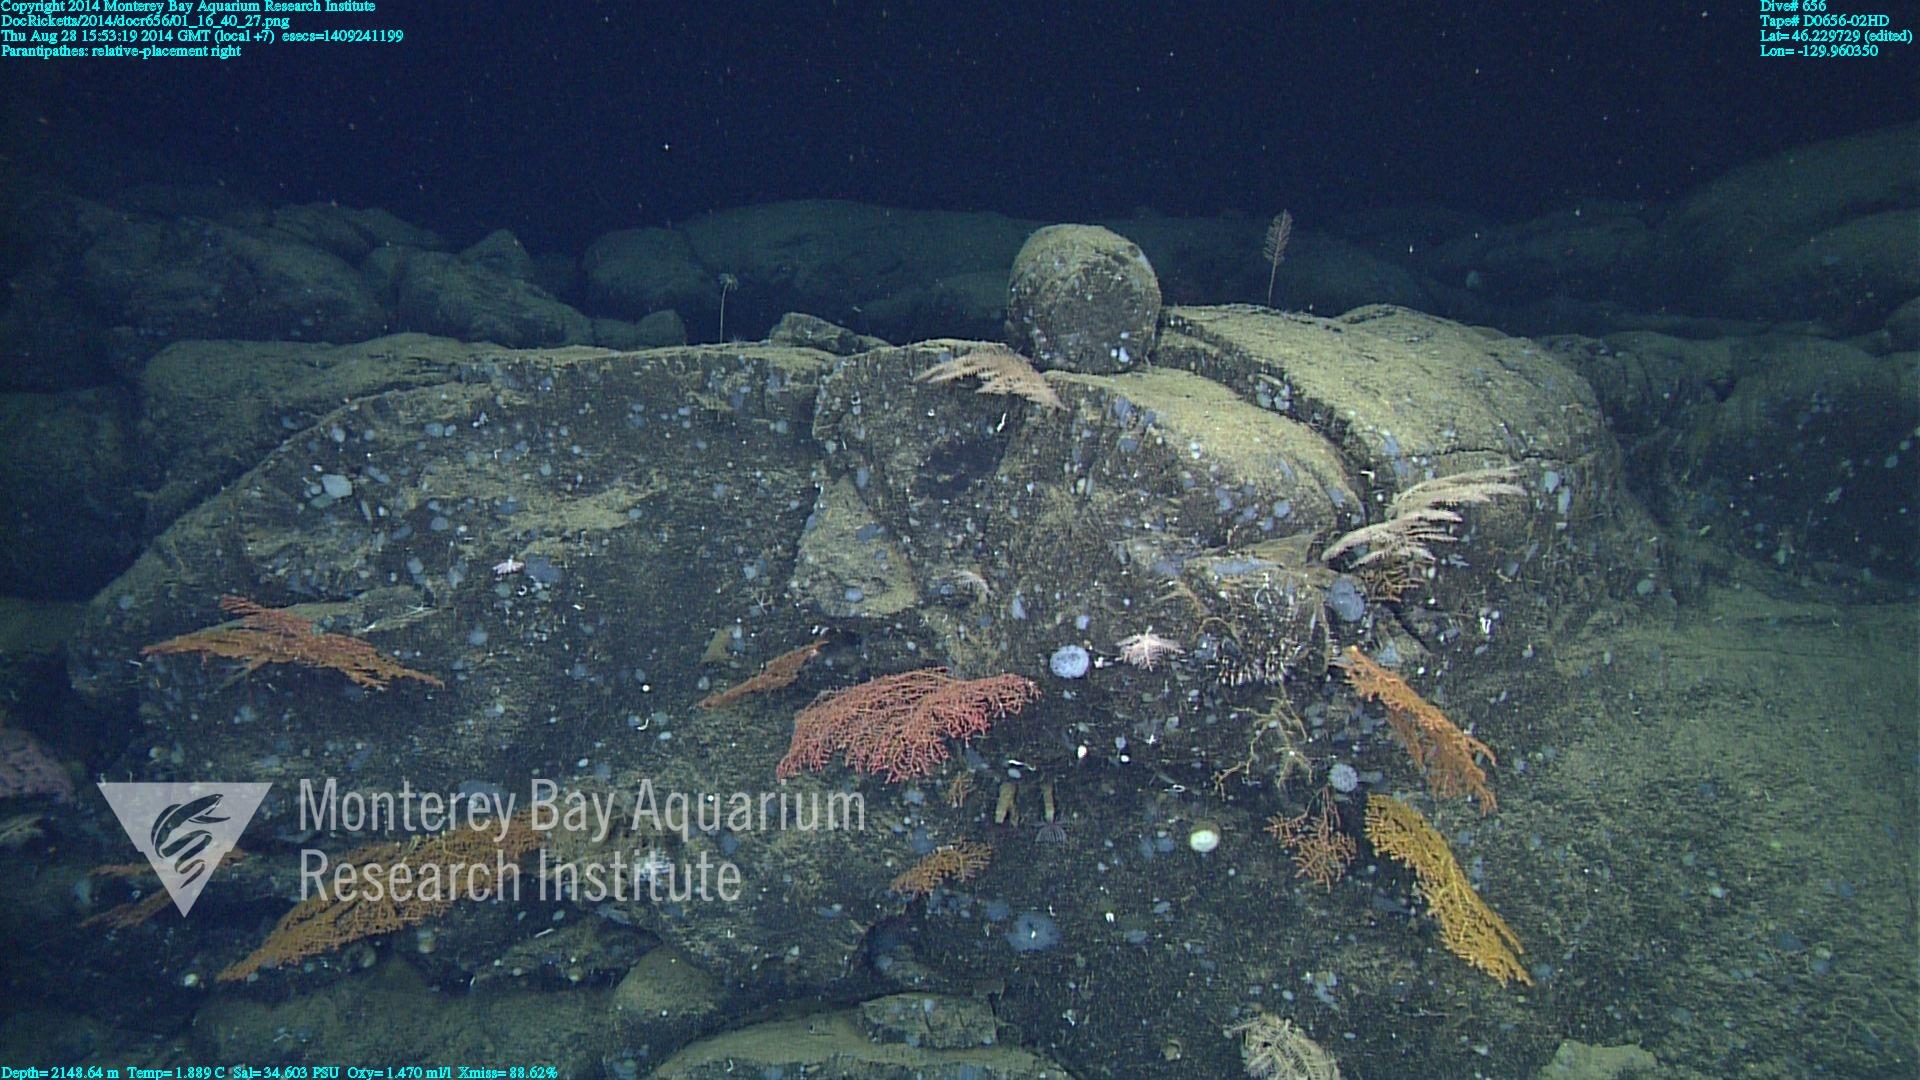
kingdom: Animalia
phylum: Cnidaria
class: Anthozoa
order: Antipatharia
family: Schizopathidae
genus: Parantipathes
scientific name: Parantipathes
